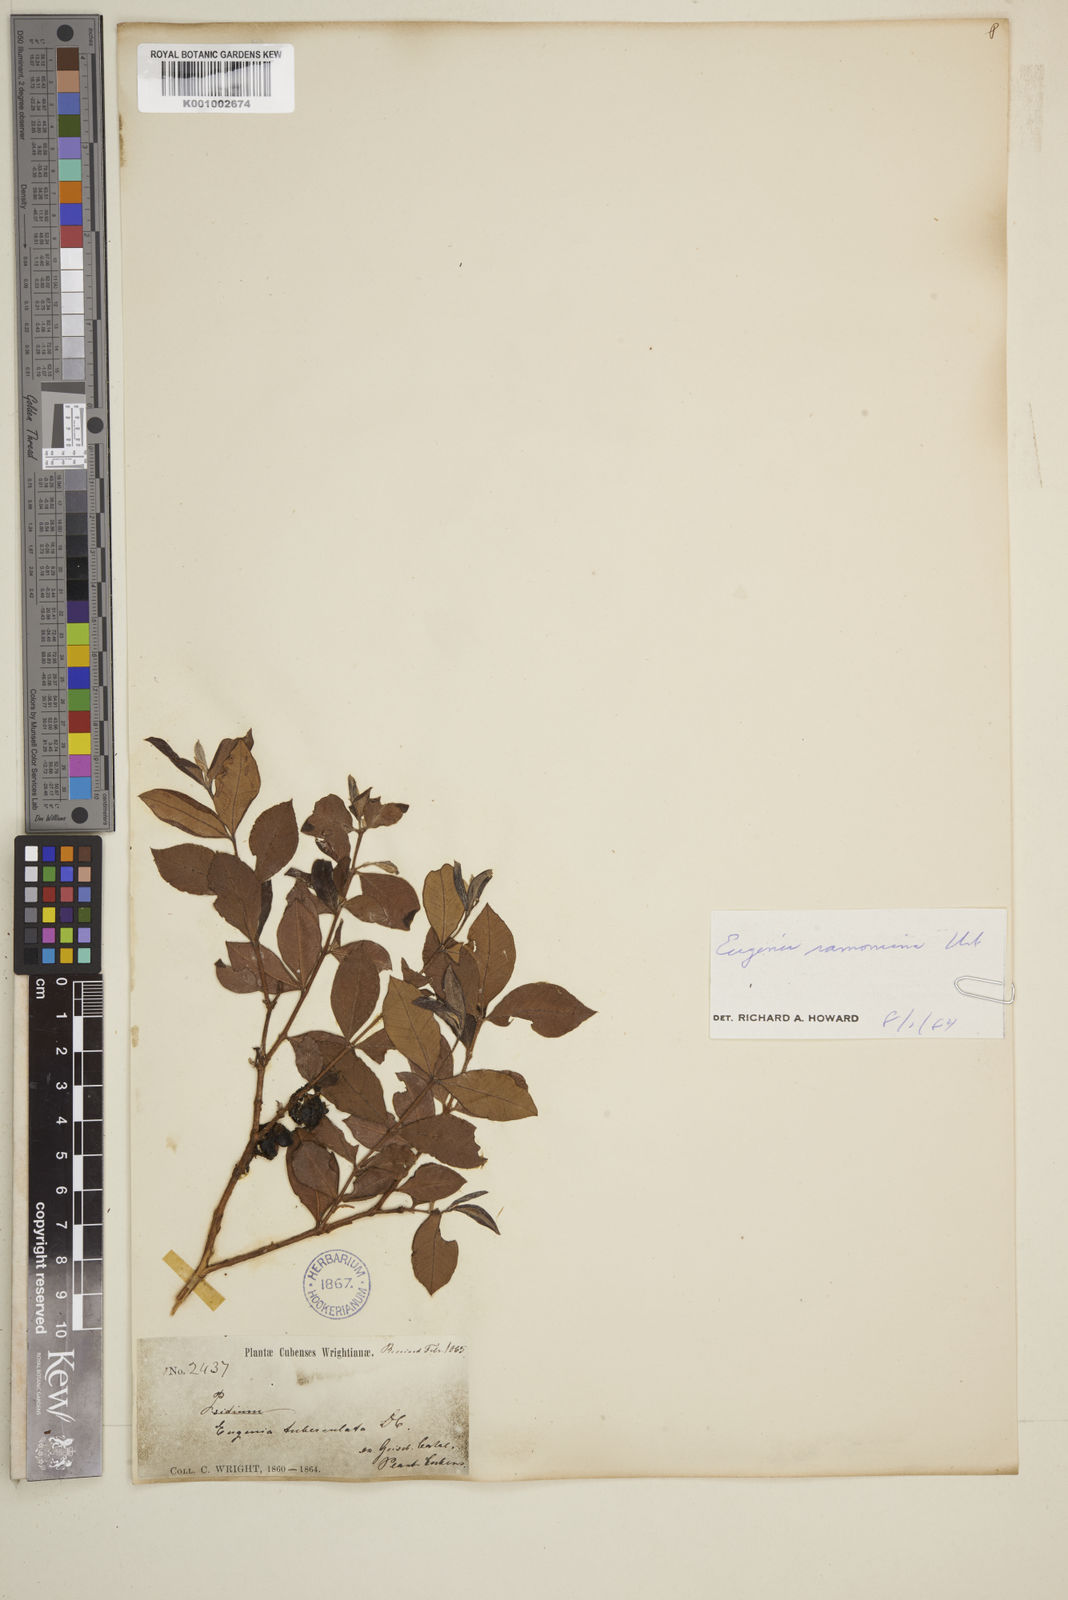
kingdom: Plantae
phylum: Tracheophyta
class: Magnoliopsida
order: Myrtales
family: Myrtaceae
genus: Eugenia
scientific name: Eugenia tuberculata
